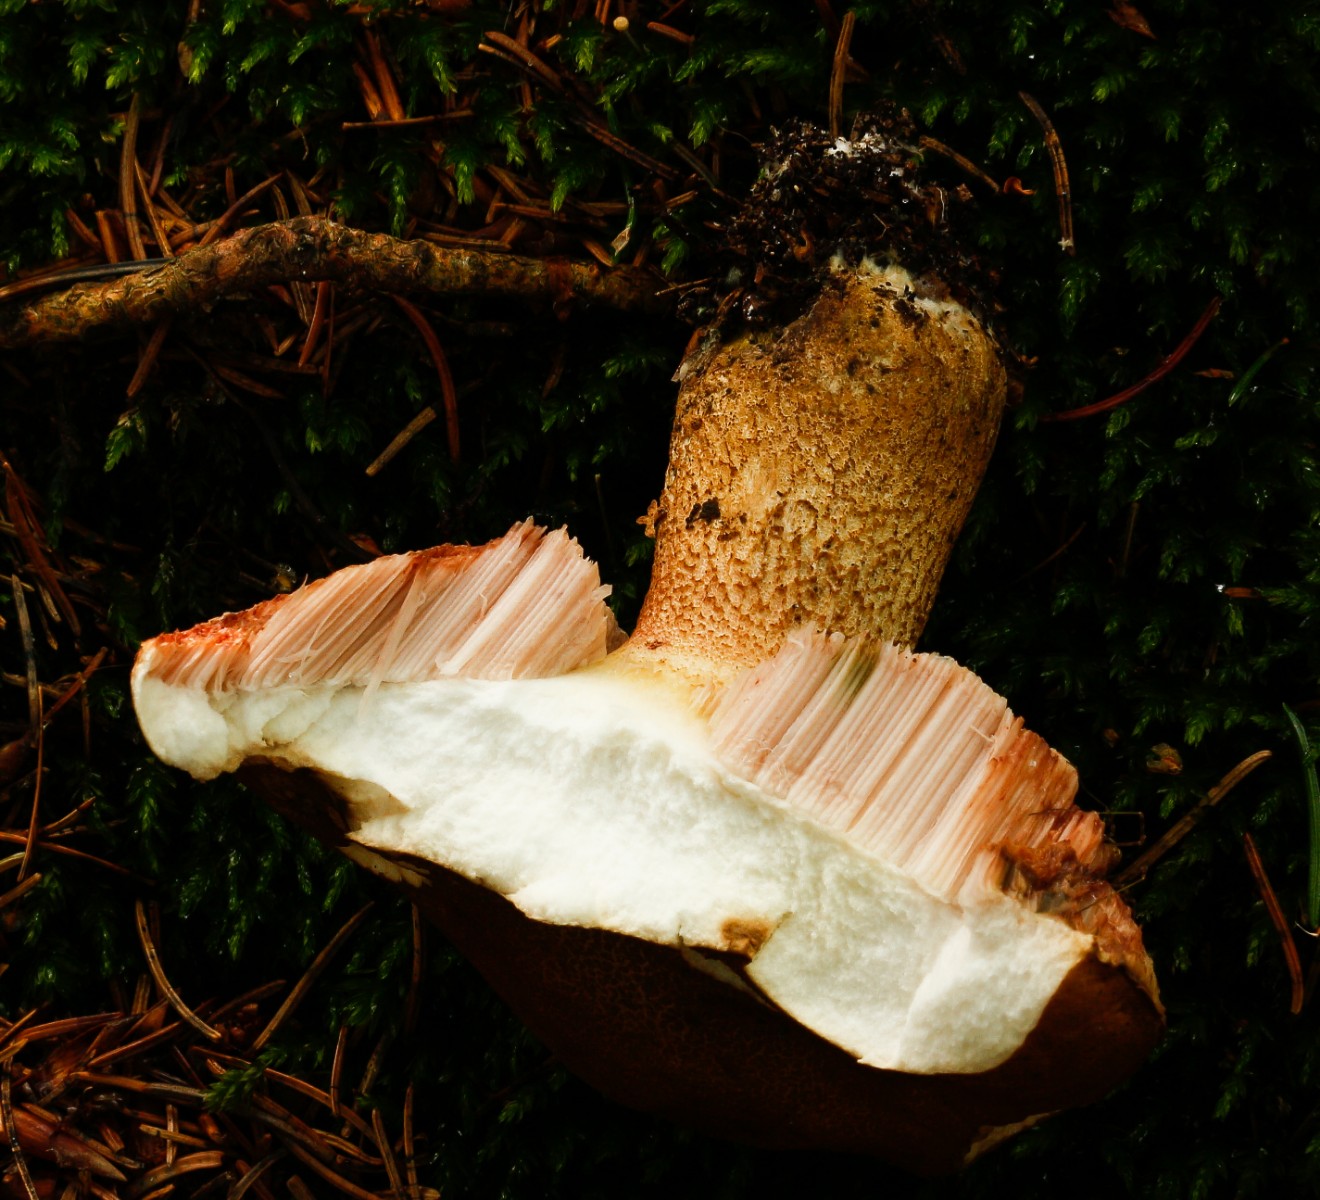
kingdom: Fungi
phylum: Basidiomycota
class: Agaricomycetes
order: Boletales
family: Boletaceae
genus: Tylopilus
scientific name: Tylopilus felleus
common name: galderørhat
